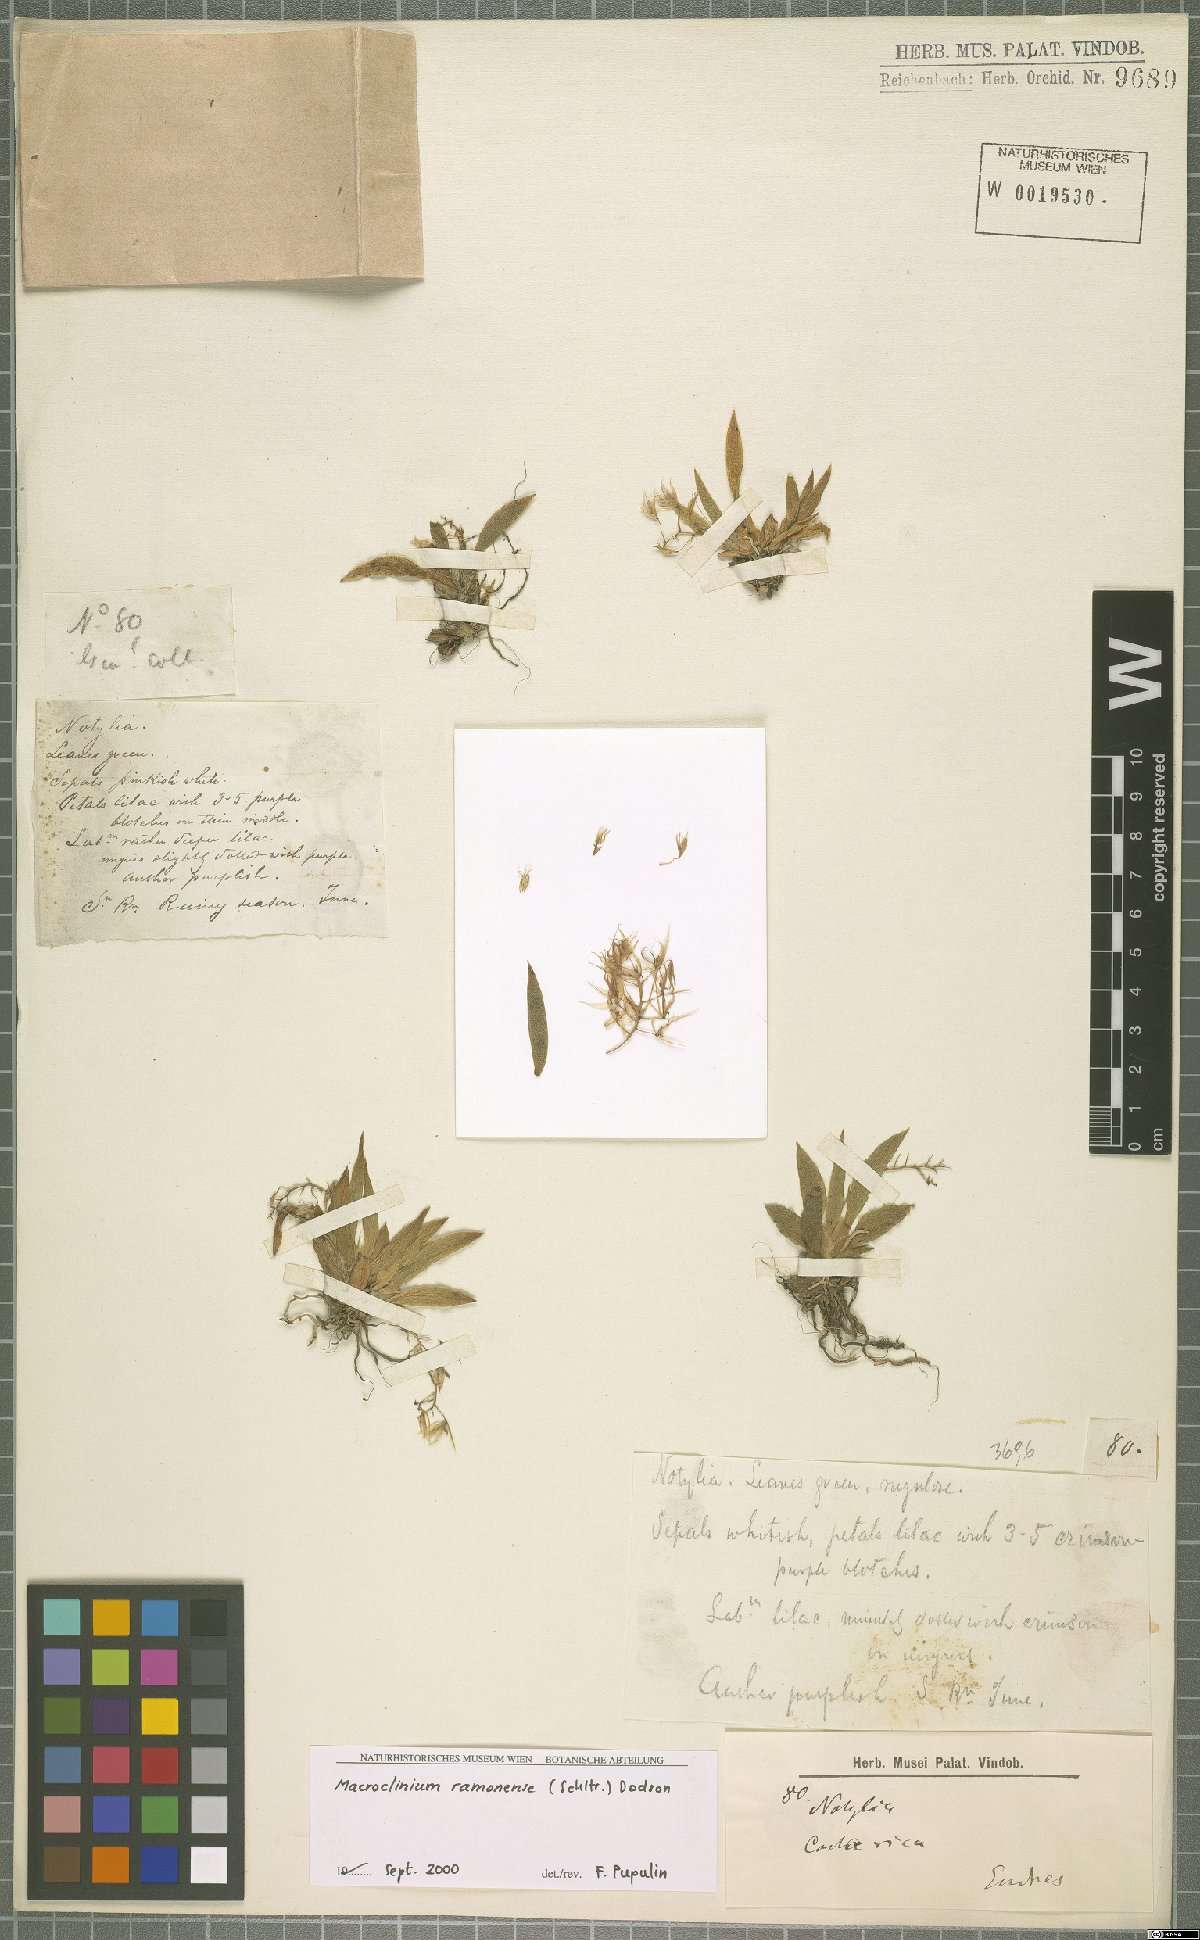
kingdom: Plantae
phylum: Tracheophyta
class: Liliopsida
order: Asparagales
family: Orchidaceae
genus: Macroclinium
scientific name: Macroclinium ramonense
